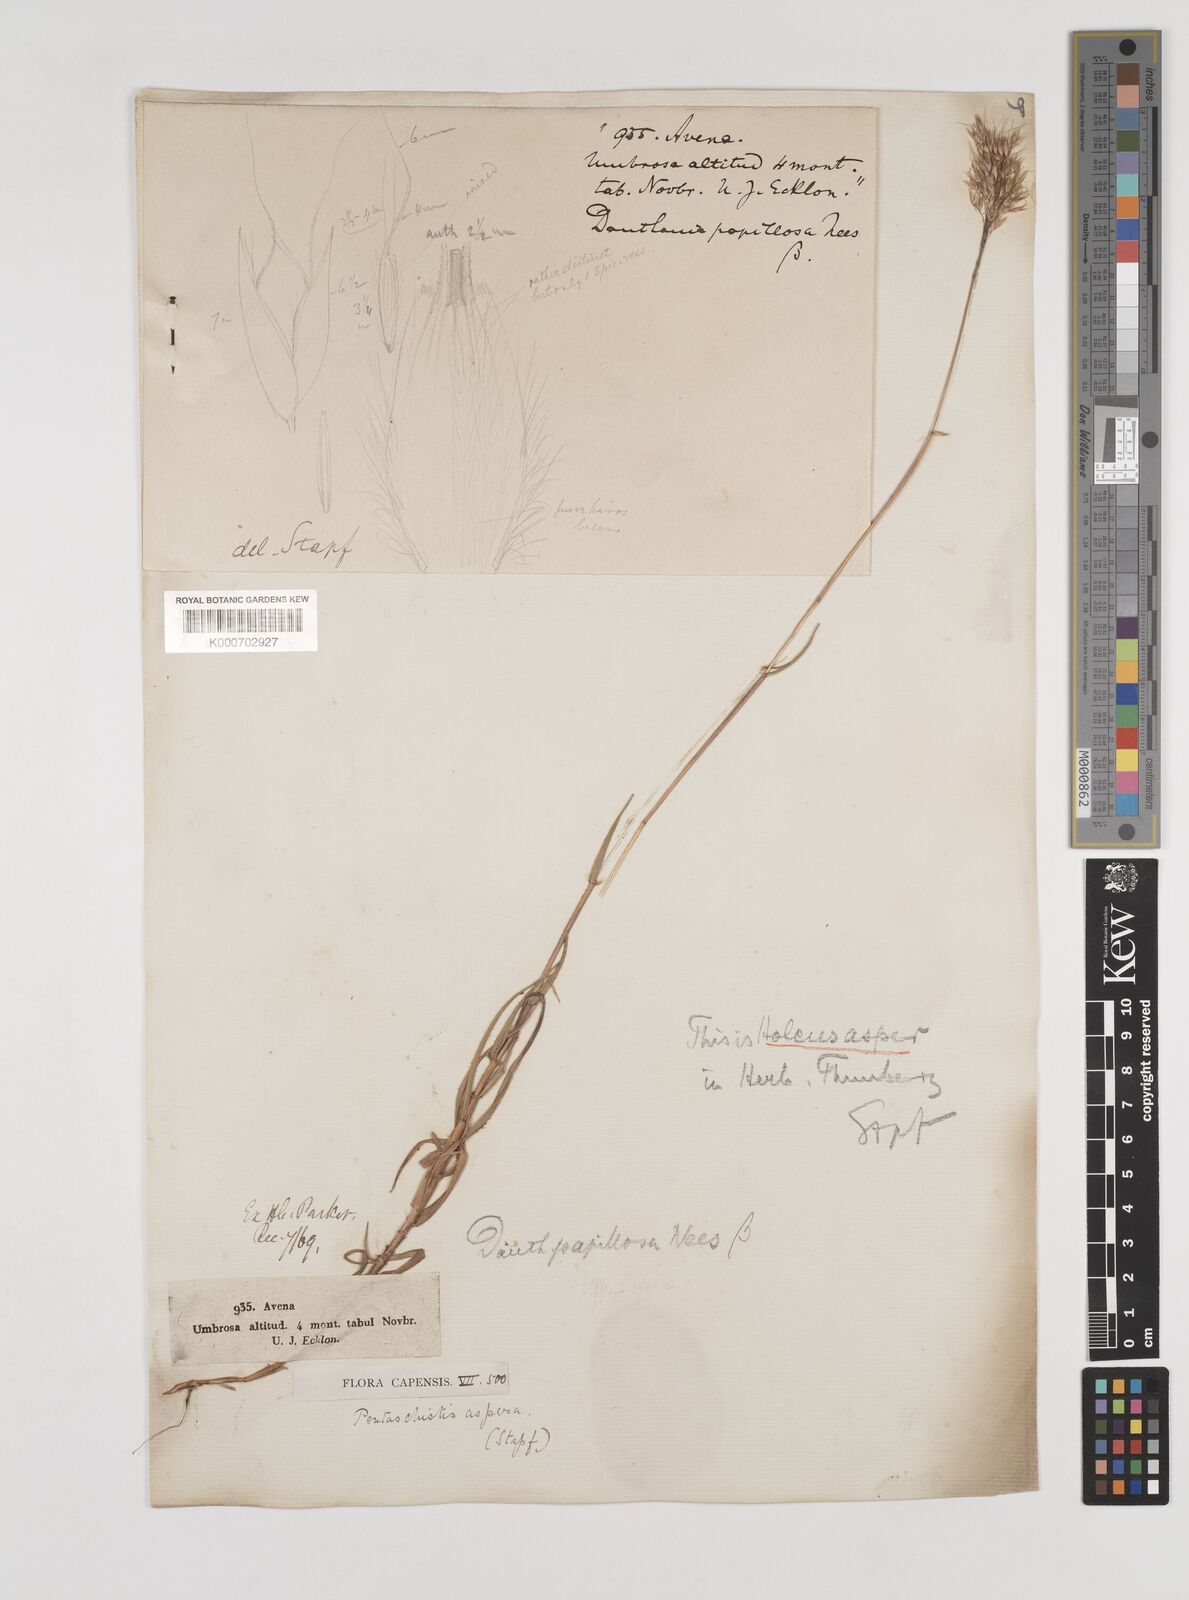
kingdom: Plantae
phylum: Tracheophyta
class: Liliopsida
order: Poales
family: Poaceae
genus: Pentameris
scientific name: Pentameris aspera
